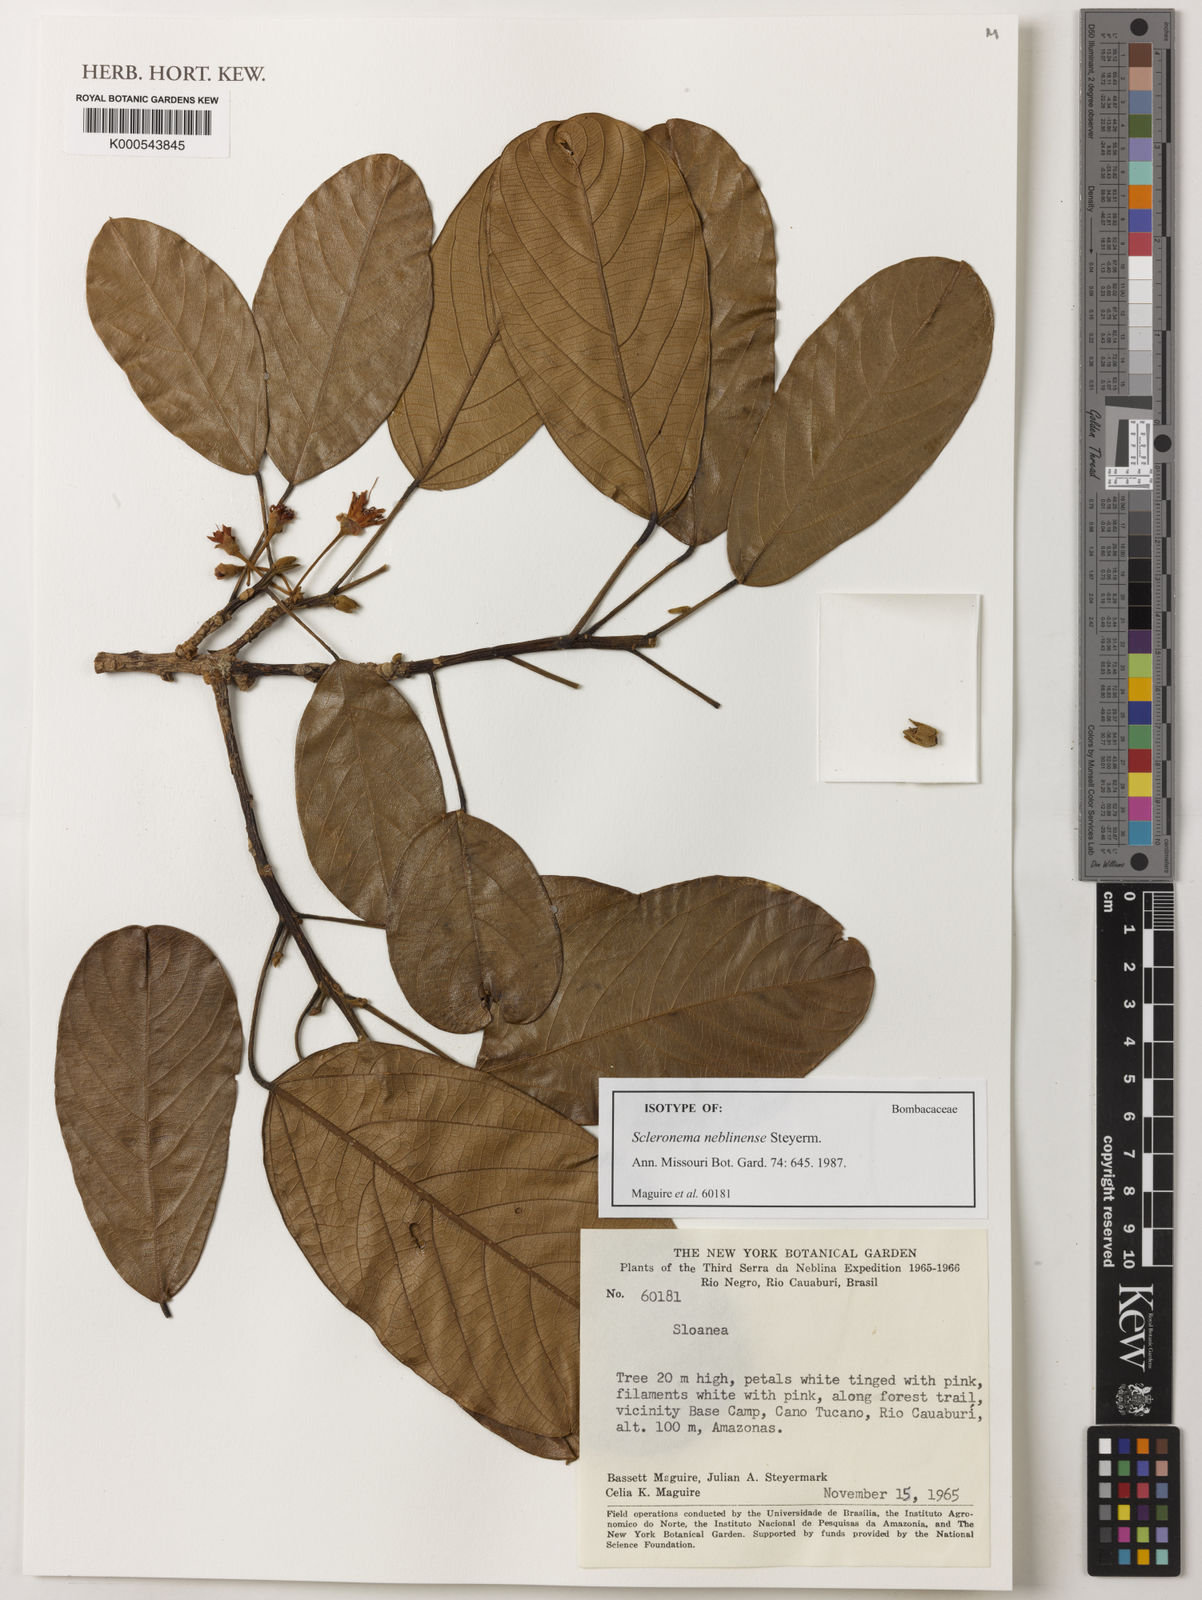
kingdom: Plantae
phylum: Tracheophyta
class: Magnoliopsida
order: Malvales
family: Malvaceae
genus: Scleronema
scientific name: Scleronema micranthum
